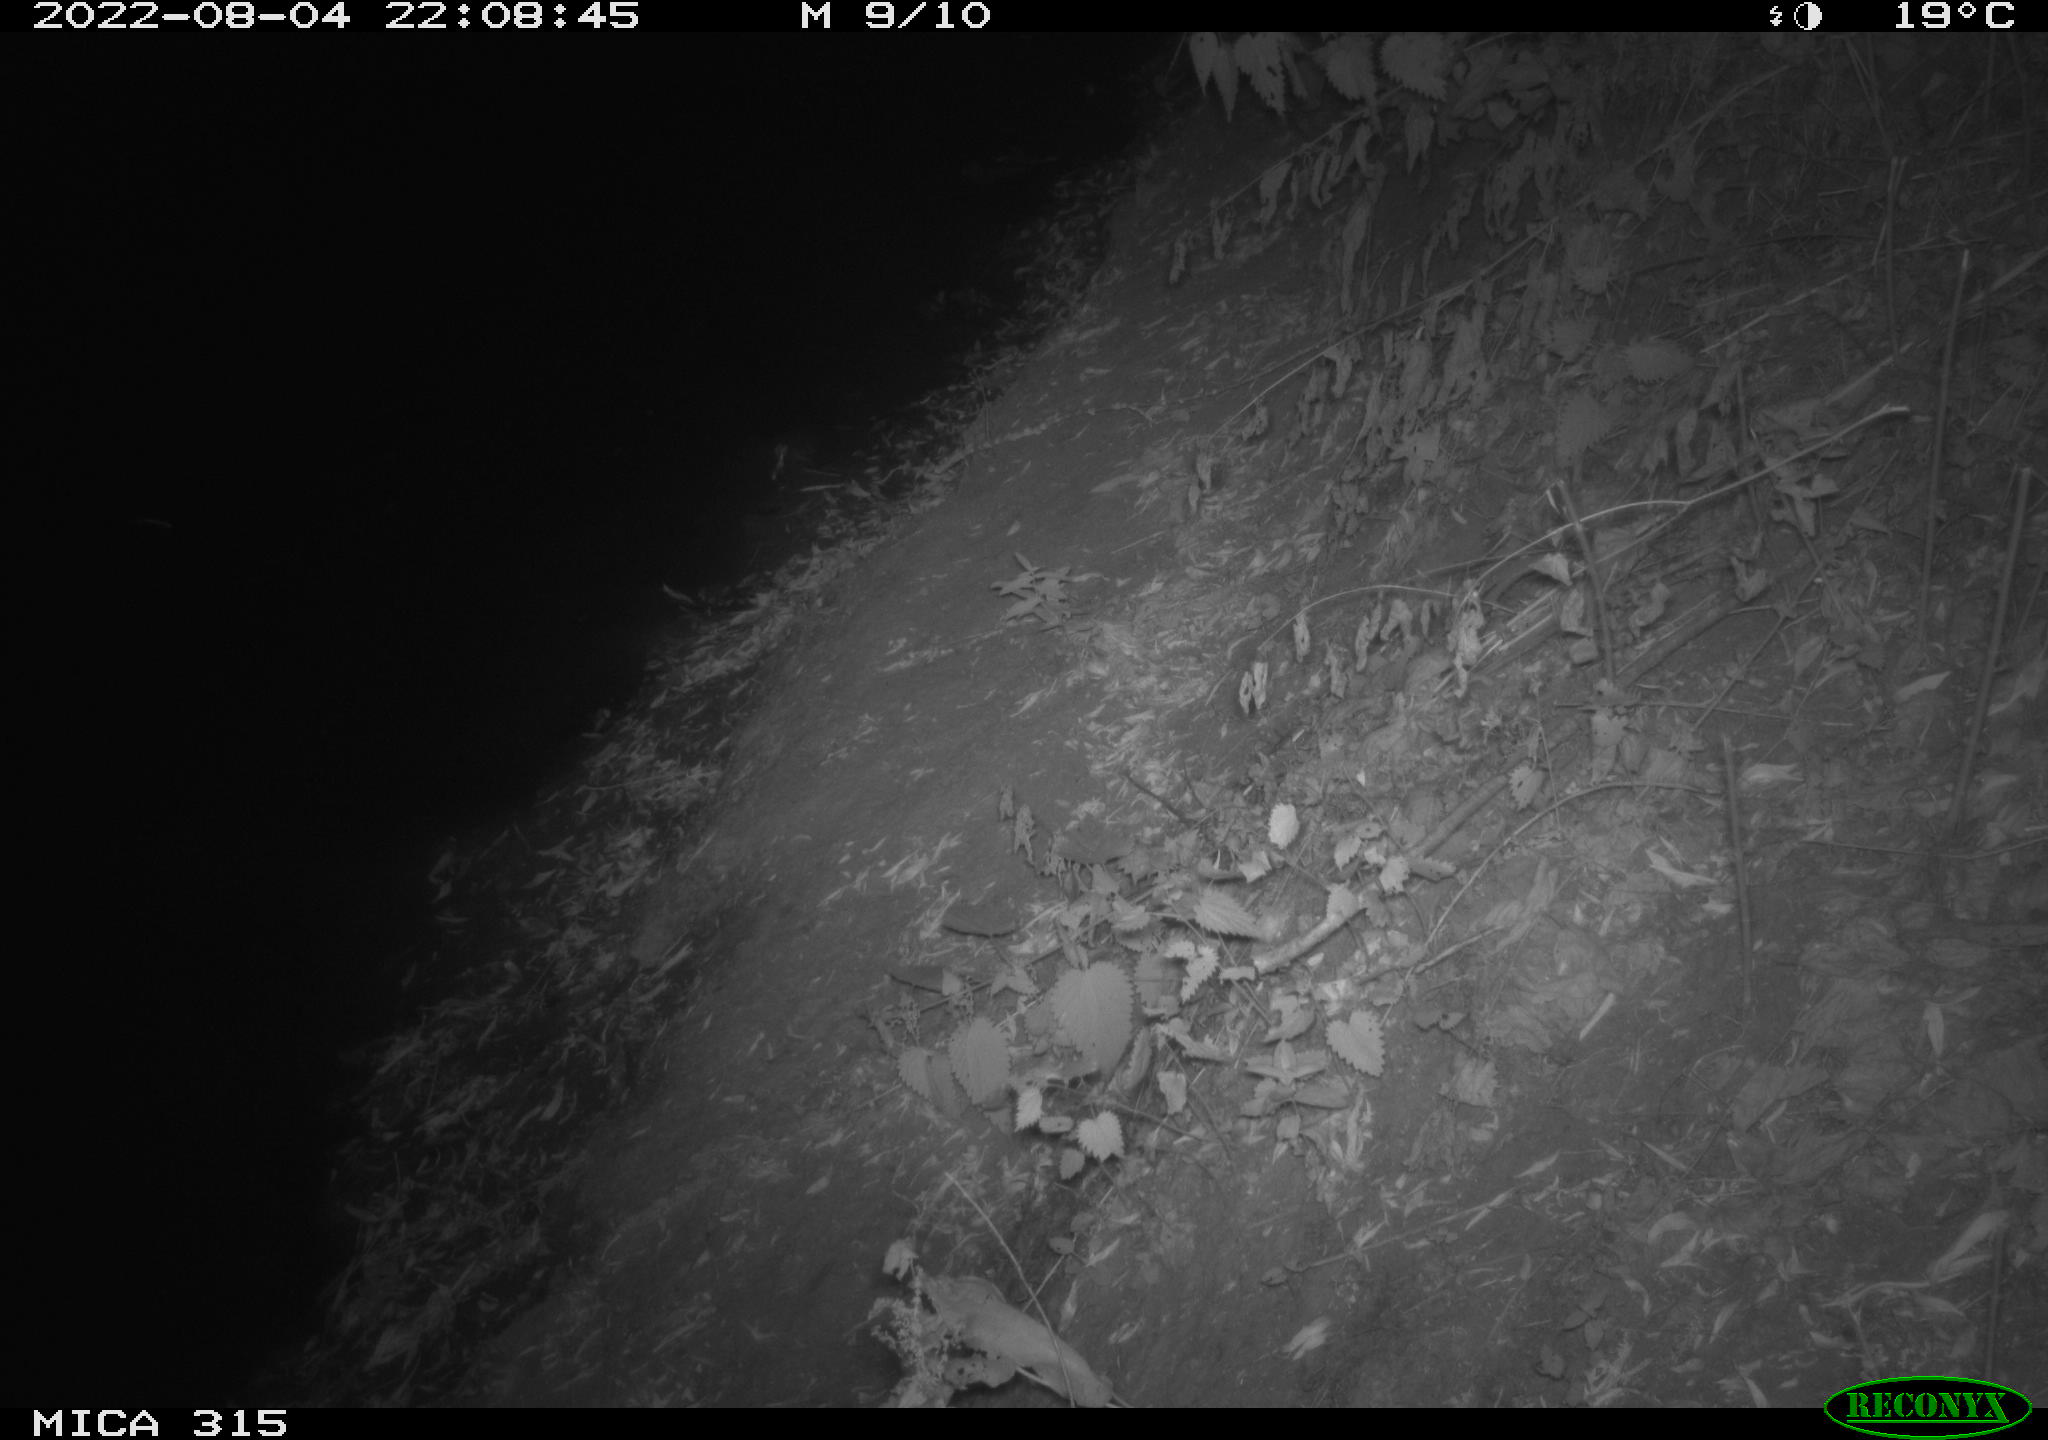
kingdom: Animalia
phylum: Chordata
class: Mammalia
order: Carnivora
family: Canidae
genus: Vulpes
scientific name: Vulpes vulpes
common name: Red fox
